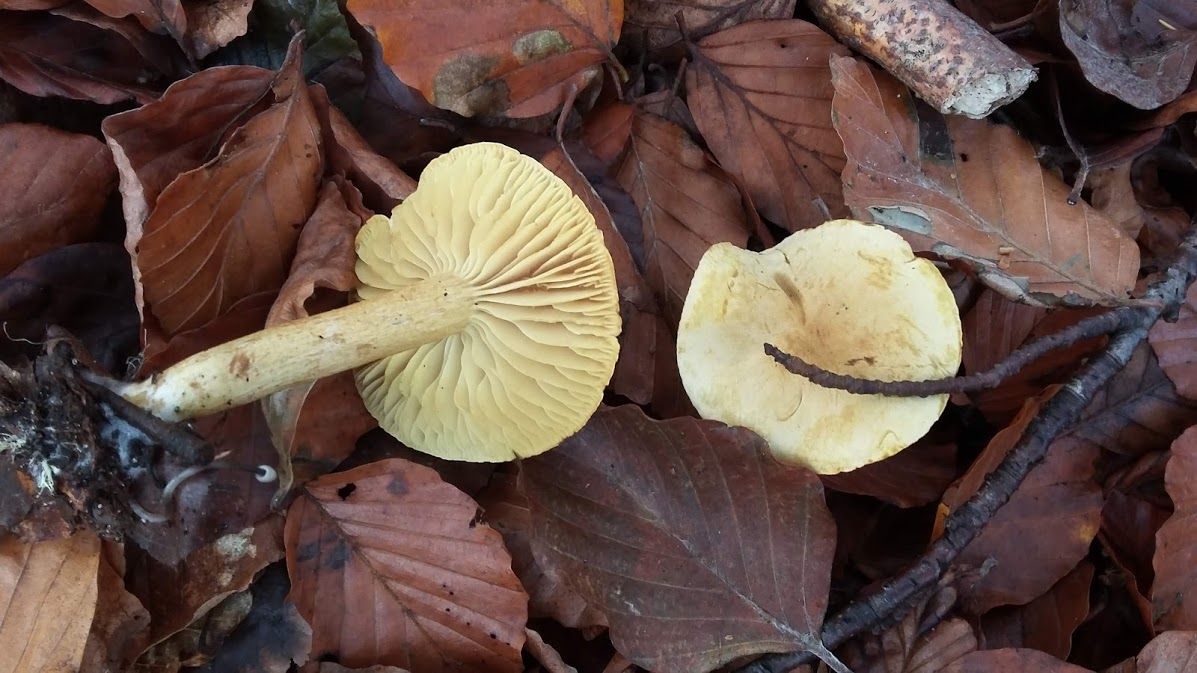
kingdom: Fungi
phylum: Basidiomycota
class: Agaricomycetes
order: Agaricales
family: Tricholomataceae
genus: Tricholoma
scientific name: Tricholoma sulphureum
